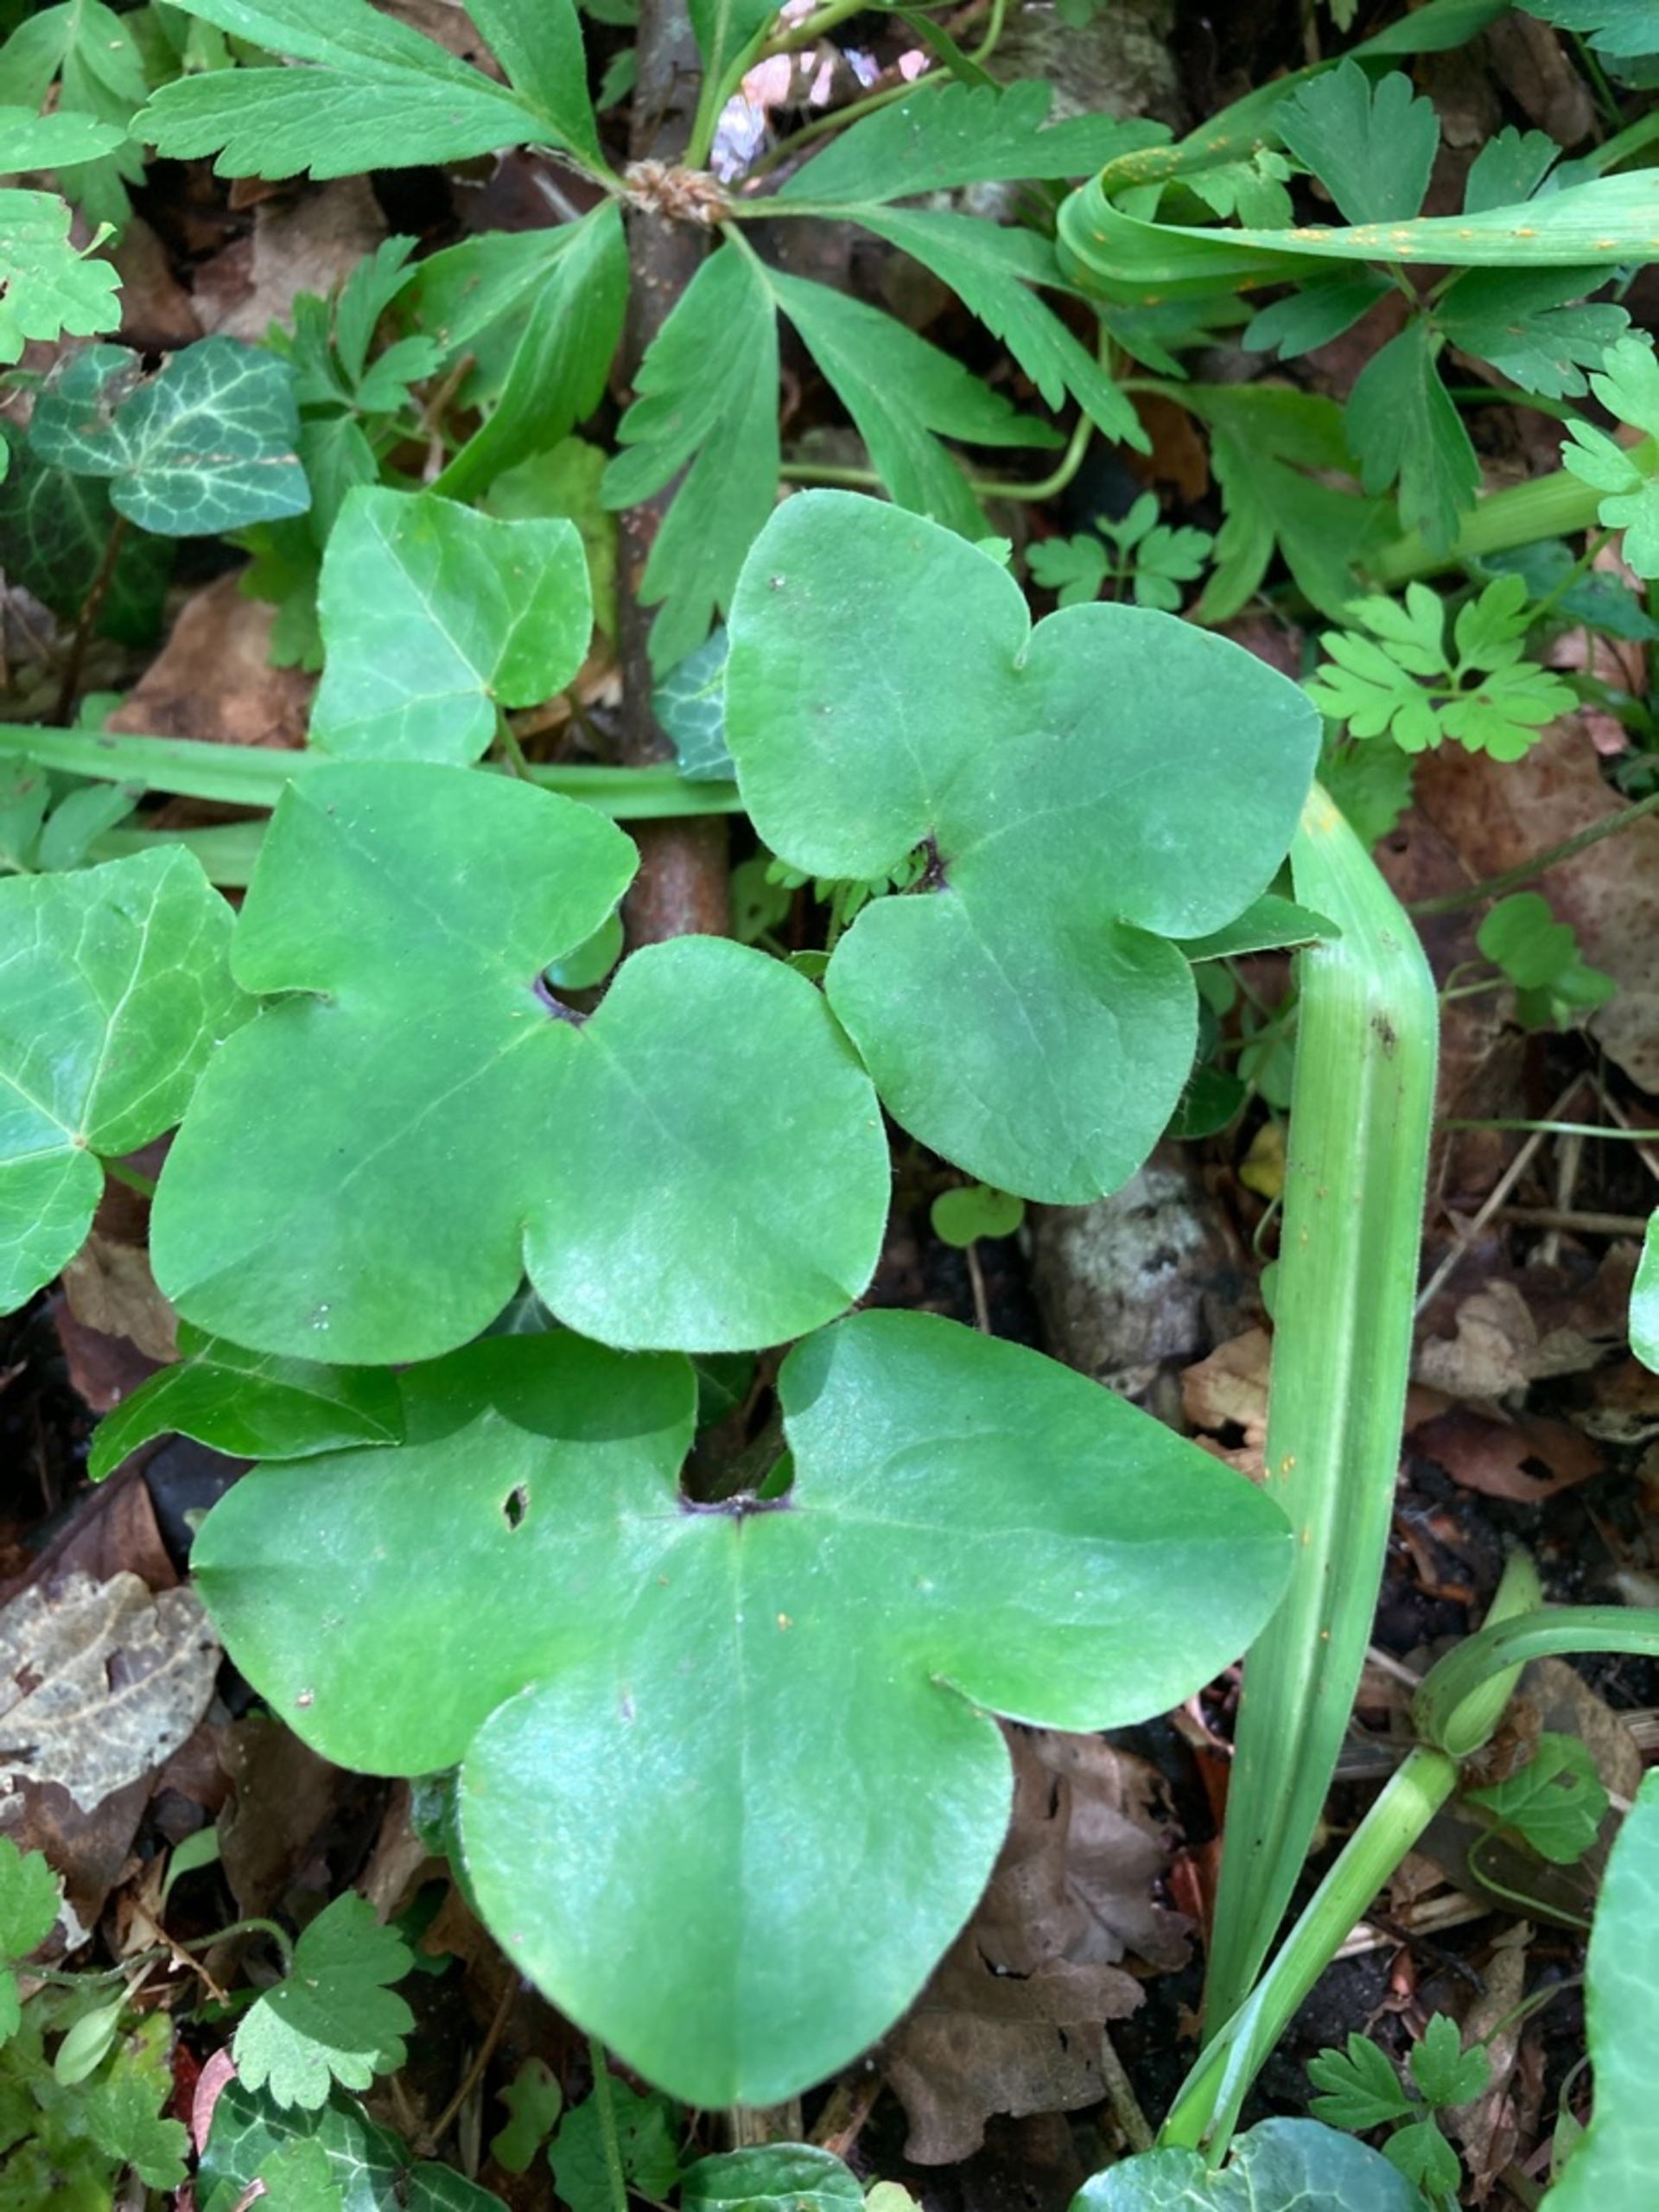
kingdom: Plantae
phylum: Tracheophyta
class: Magnoliopsida
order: Ranunculales
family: Ranunculaceae
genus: Hepatica
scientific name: Hepatica nobilis
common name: Blå anemone
